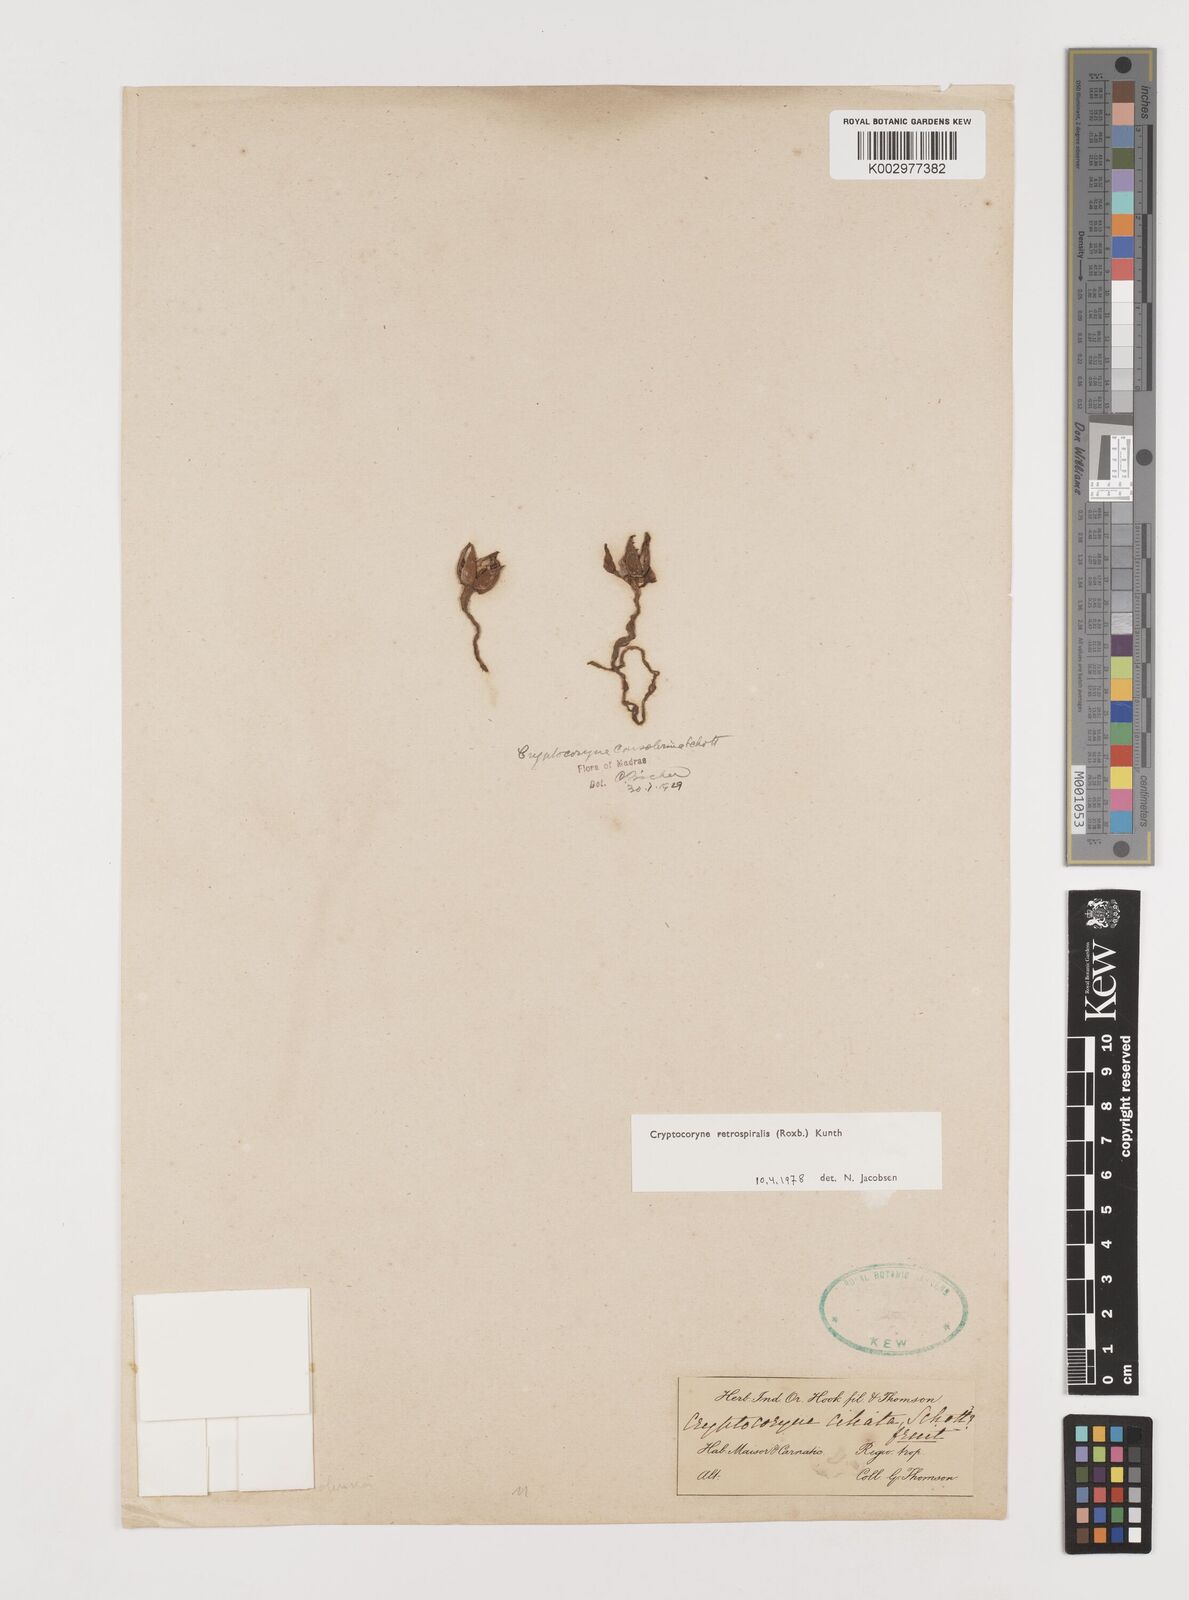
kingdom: Plantae
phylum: Tracheophyta
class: Liliopsida
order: Alismatales
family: Araceae
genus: Cryptocoryne
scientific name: Cryptocoryne retrospiralis
